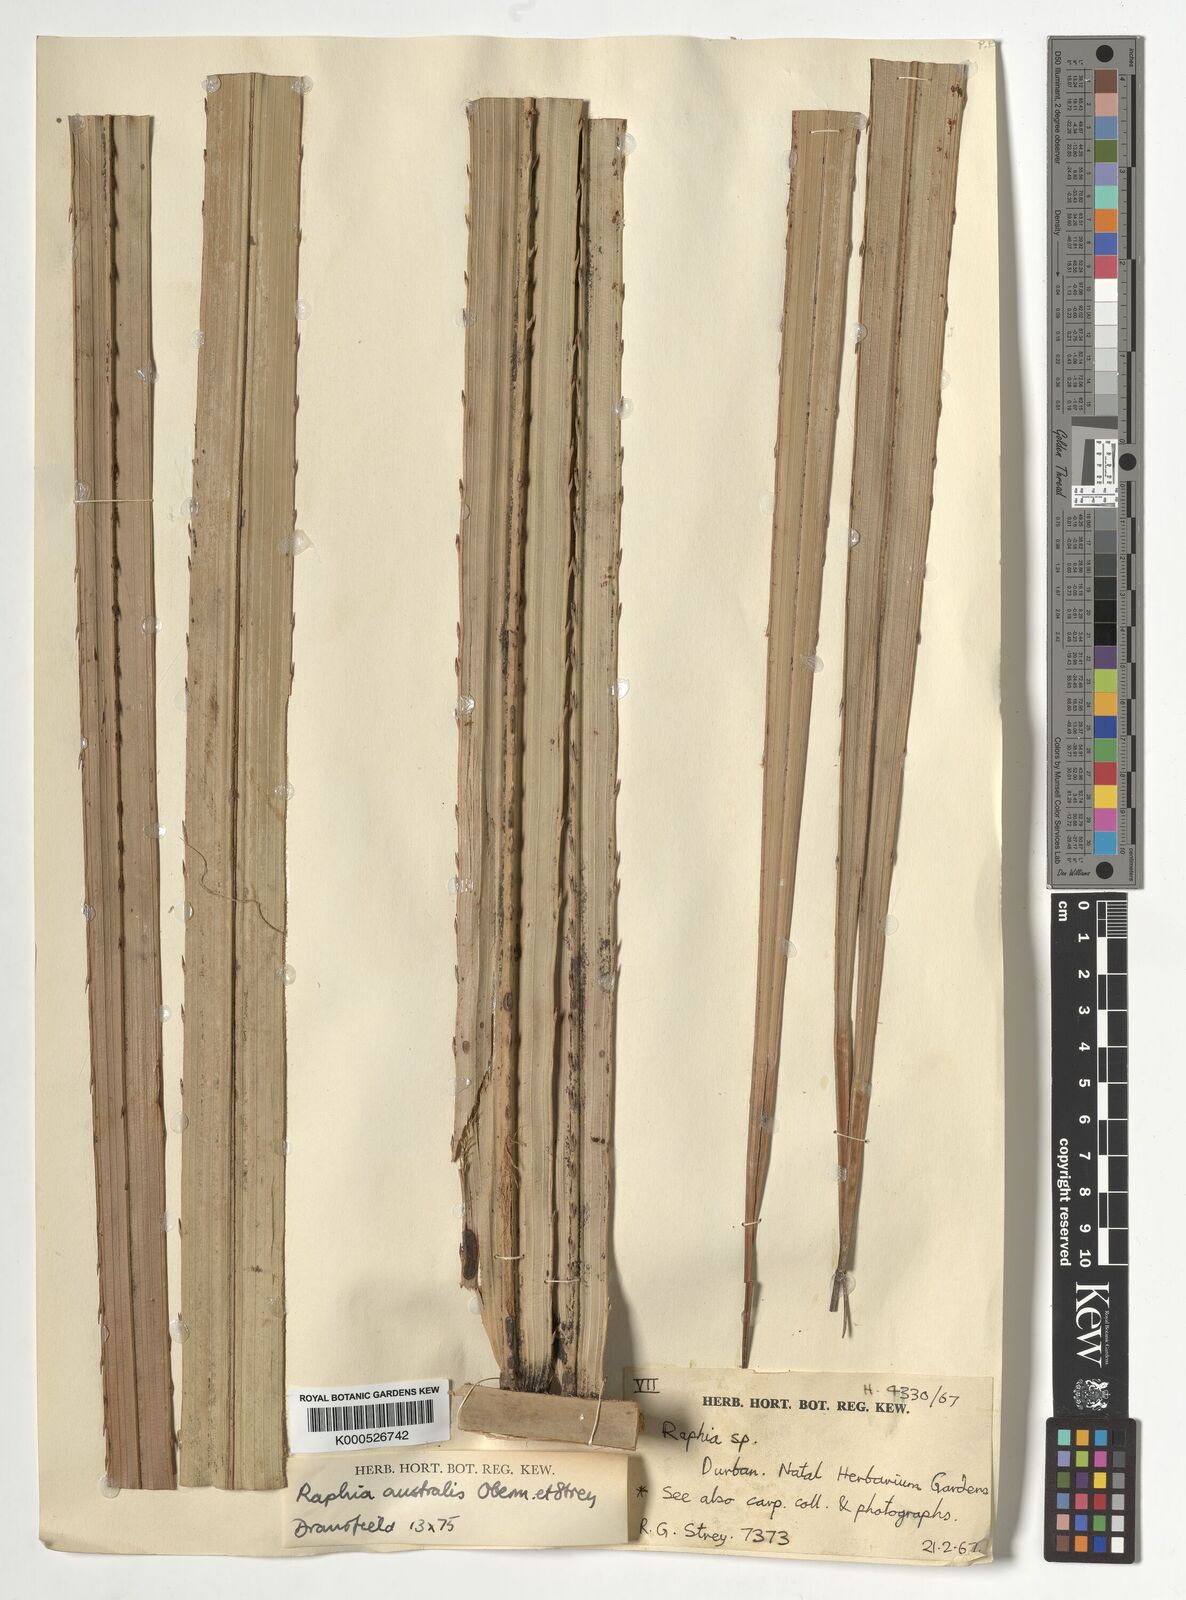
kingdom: Plantae
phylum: Tracheophyta
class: Liliopsida
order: Arecales
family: Arecaceae
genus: Raphia
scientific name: Raphia australis
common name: Giant palm
